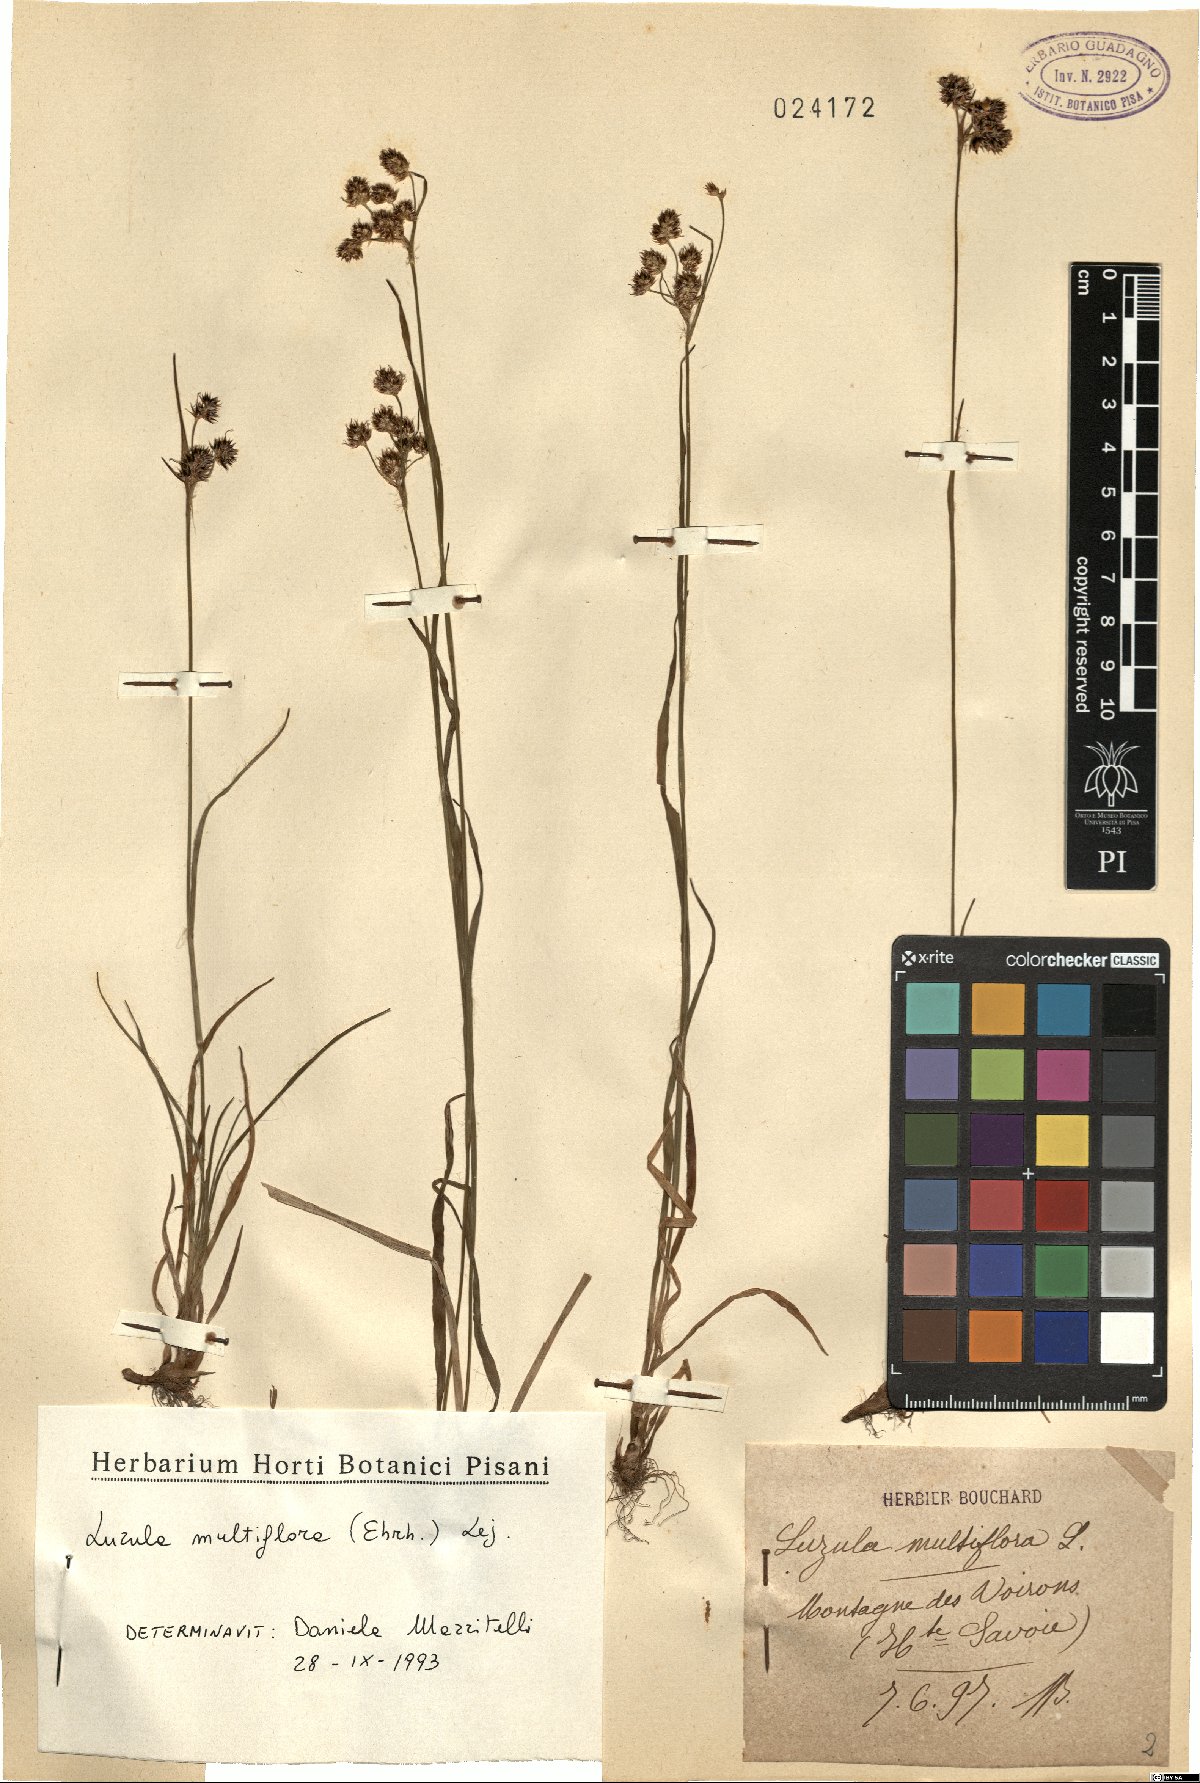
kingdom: Plantae
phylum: Tracheophyta
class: Liliopsida
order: Poales
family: Juncaceae
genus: Luzula
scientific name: Luzula multiflora
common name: Heath wood-rush
